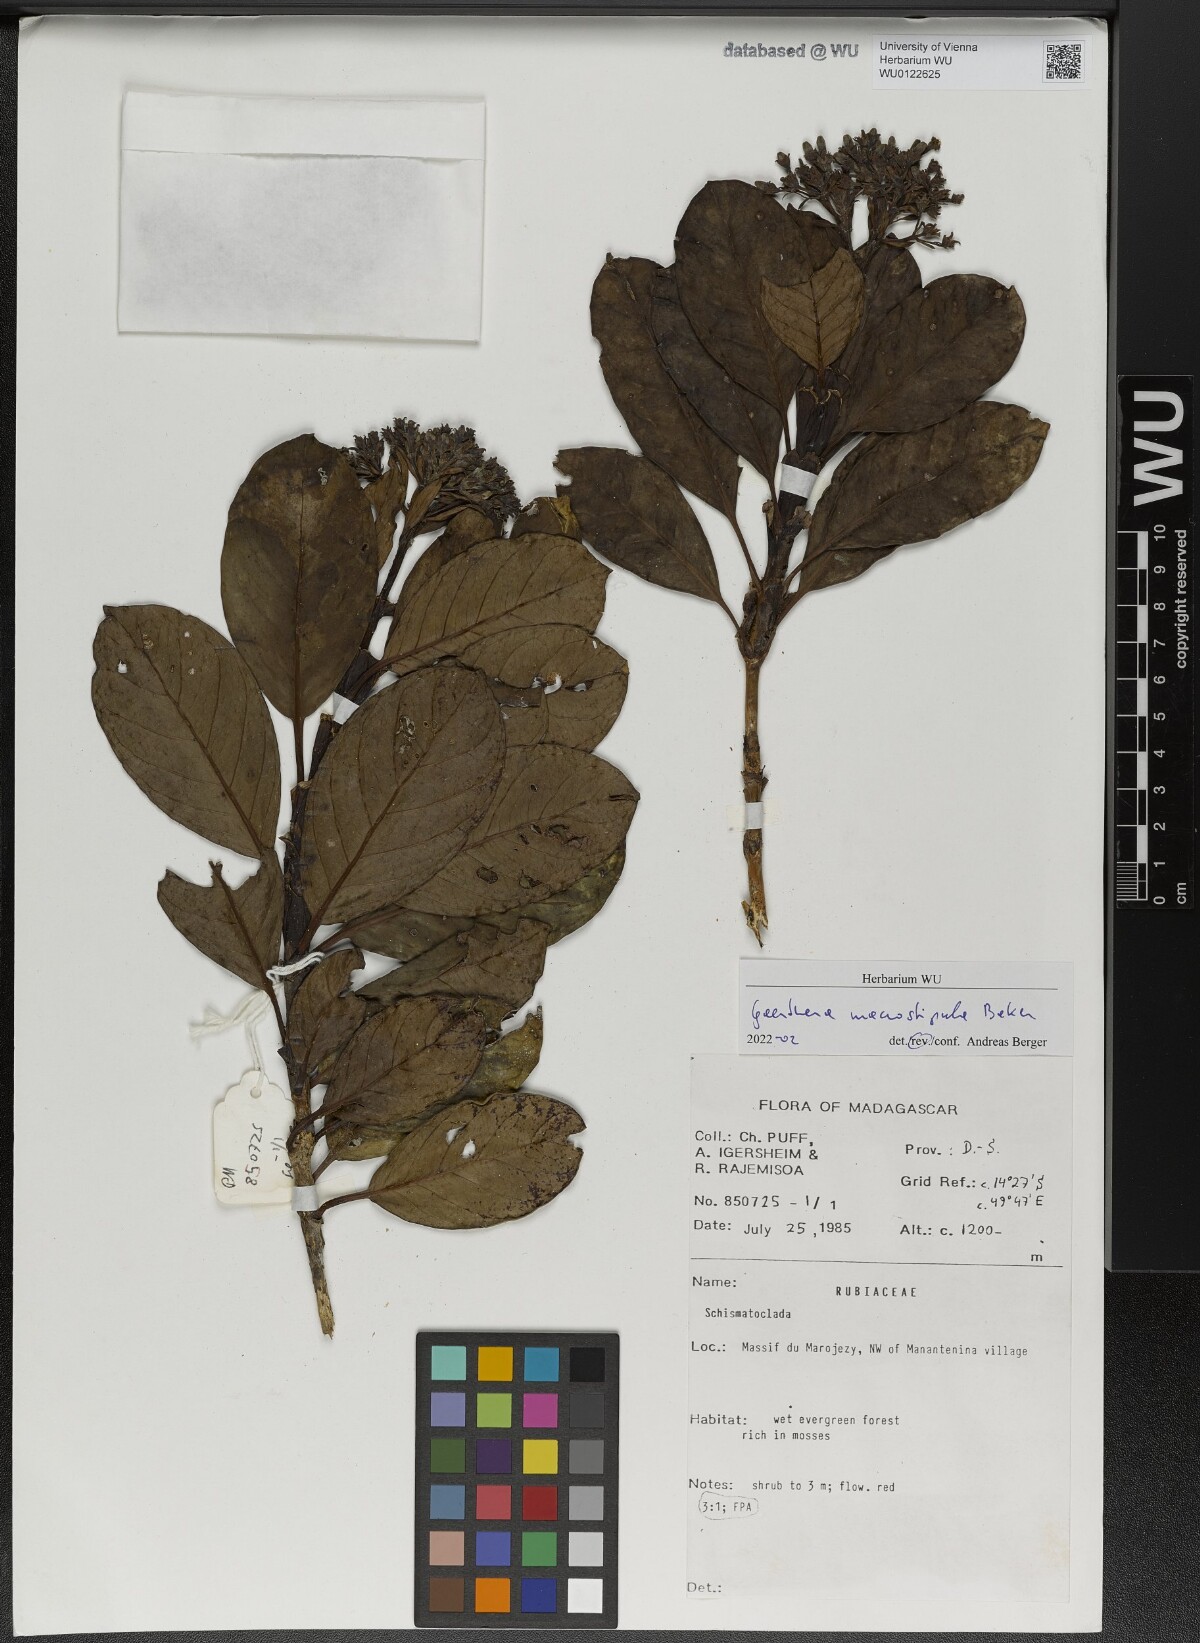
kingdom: Plantae
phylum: Tracheophyta
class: Magnoliopsida
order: Gentianales
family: Rubiaceae
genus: Gaertnera
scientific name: Gaertnera macrostipula
